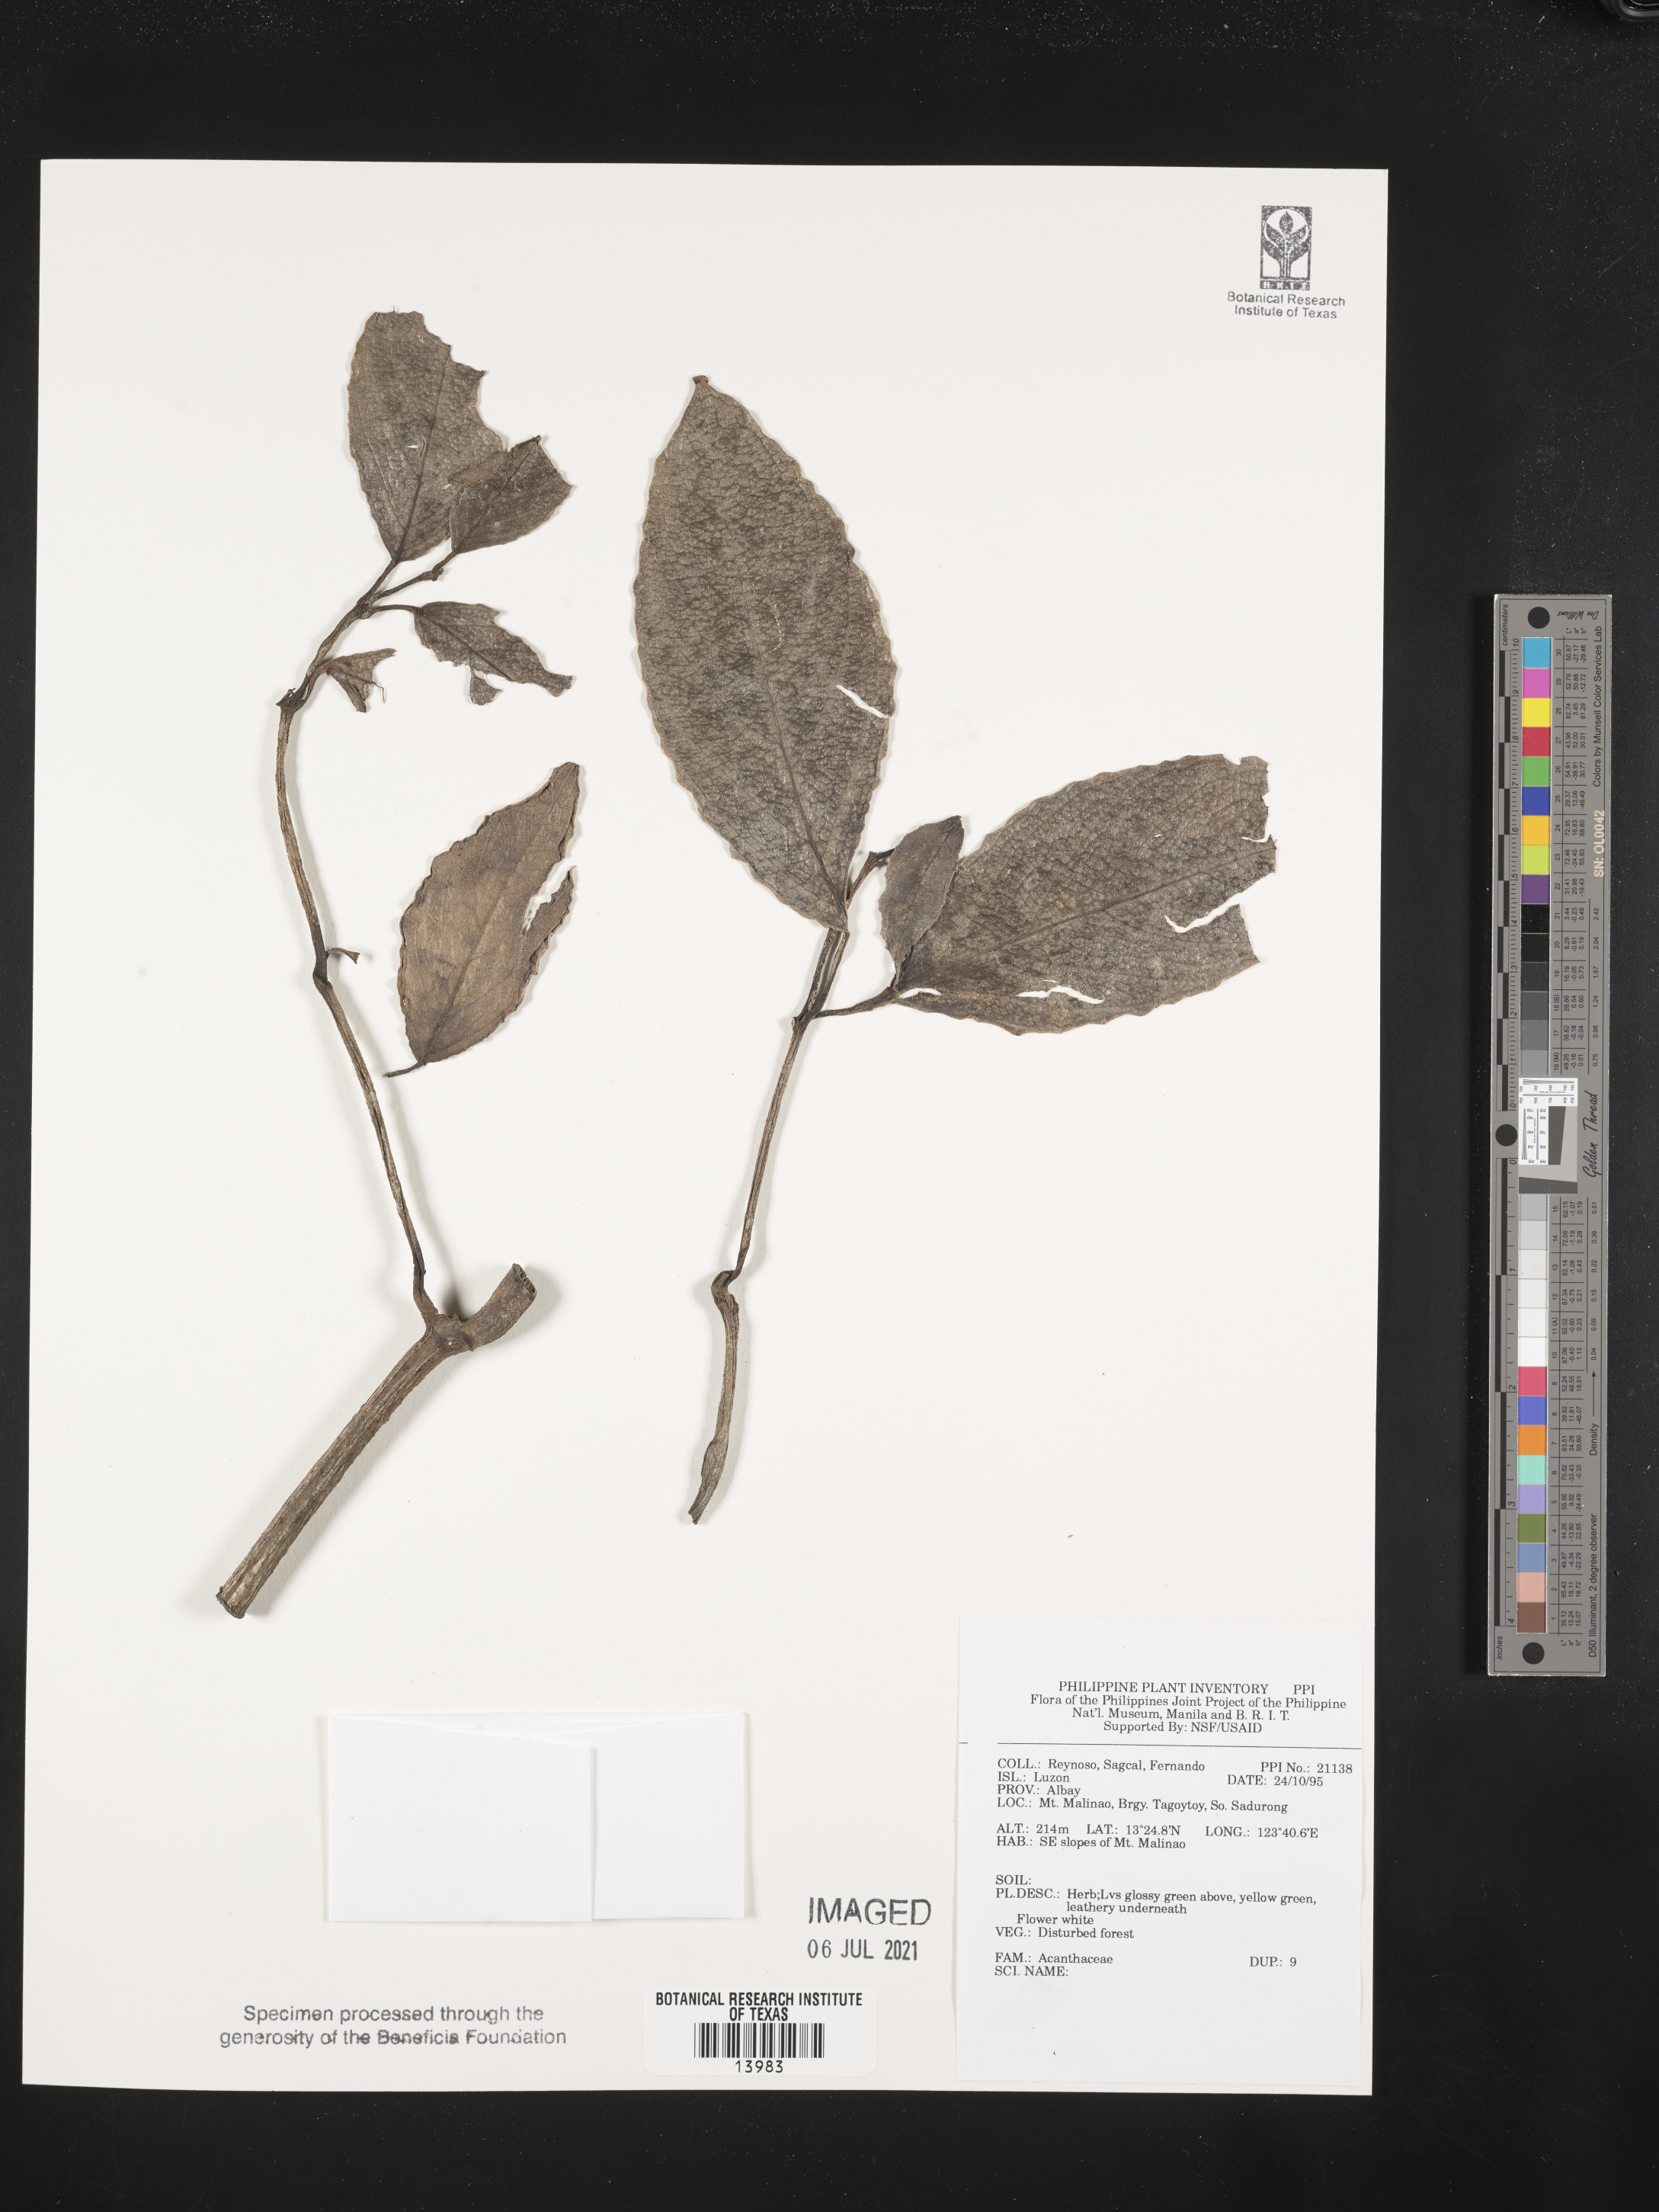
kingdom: Plantae
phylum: Tracheophyta
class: Magnoliopsida
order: Lamiales
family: Acanthaceae
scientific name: Acanthaceae
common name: Acanthaceae
